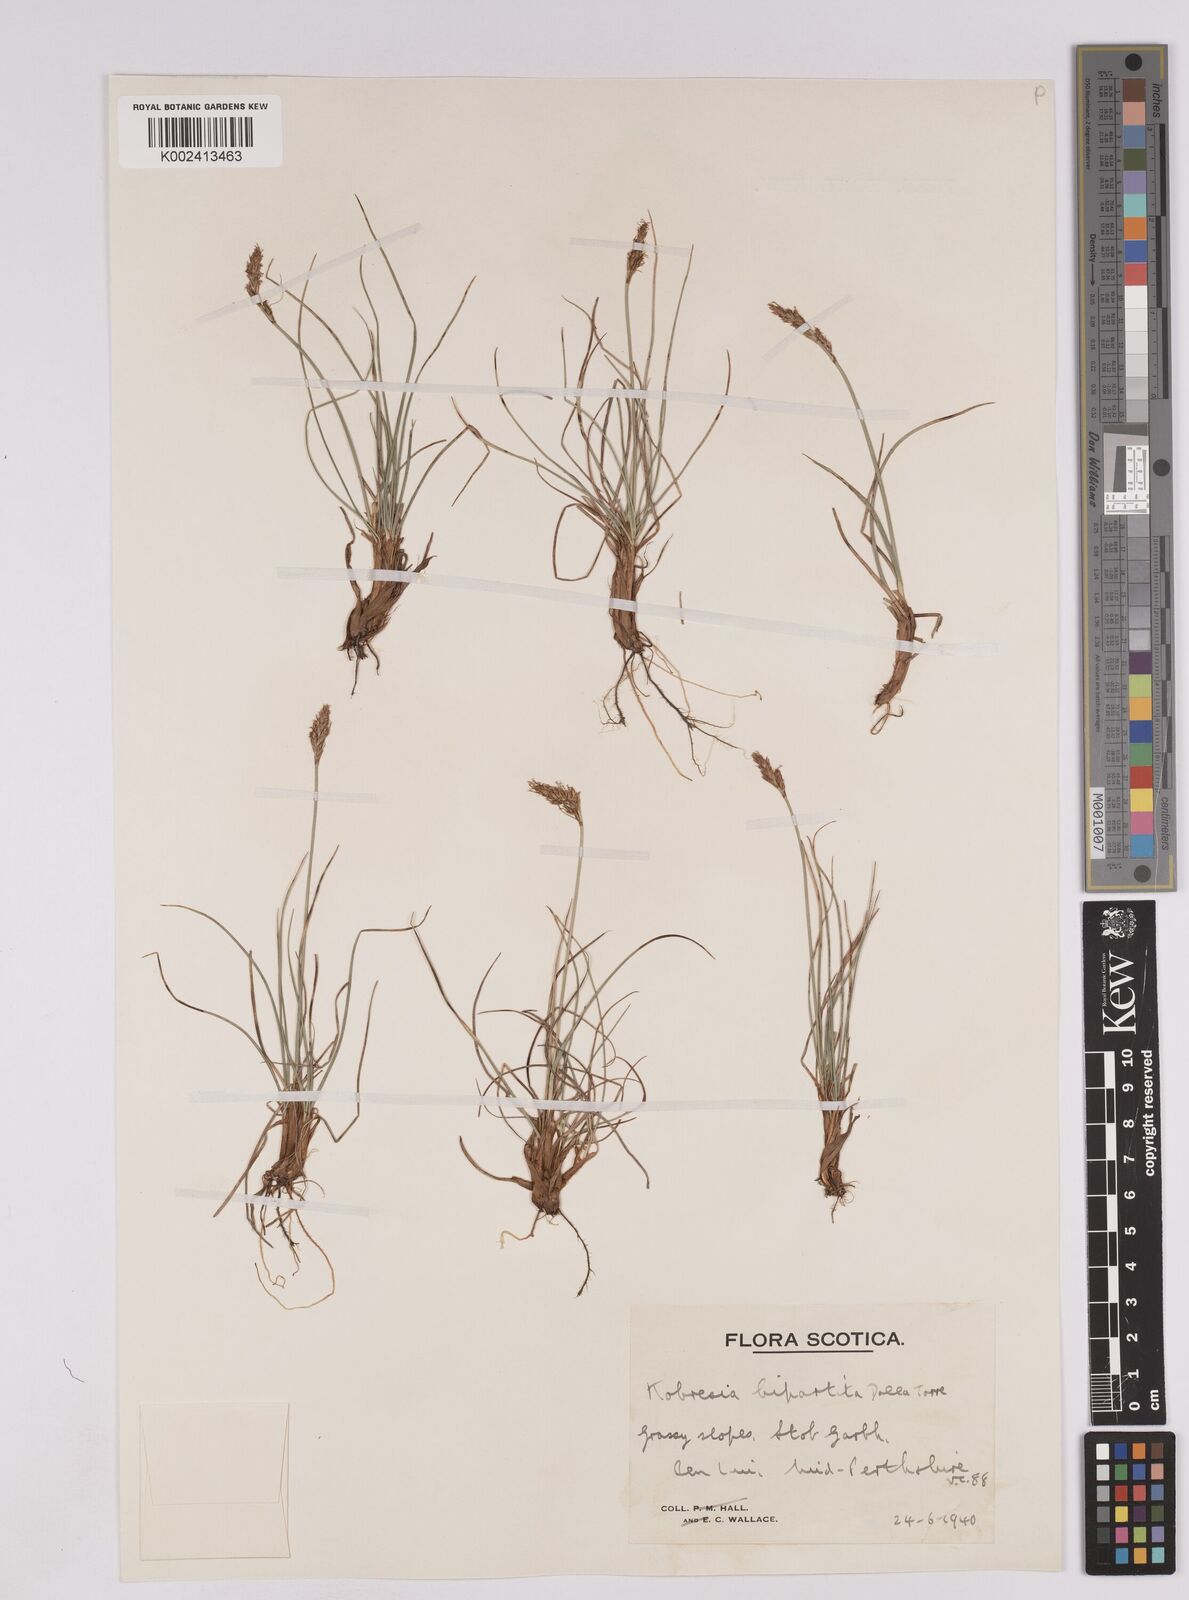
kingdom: Plantae
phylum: Tracheophyta
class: Liliopsida
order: Poales
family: Cyperaceae
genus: Carex
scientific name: Carex simpliciuscula
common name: Simple bog sedge
